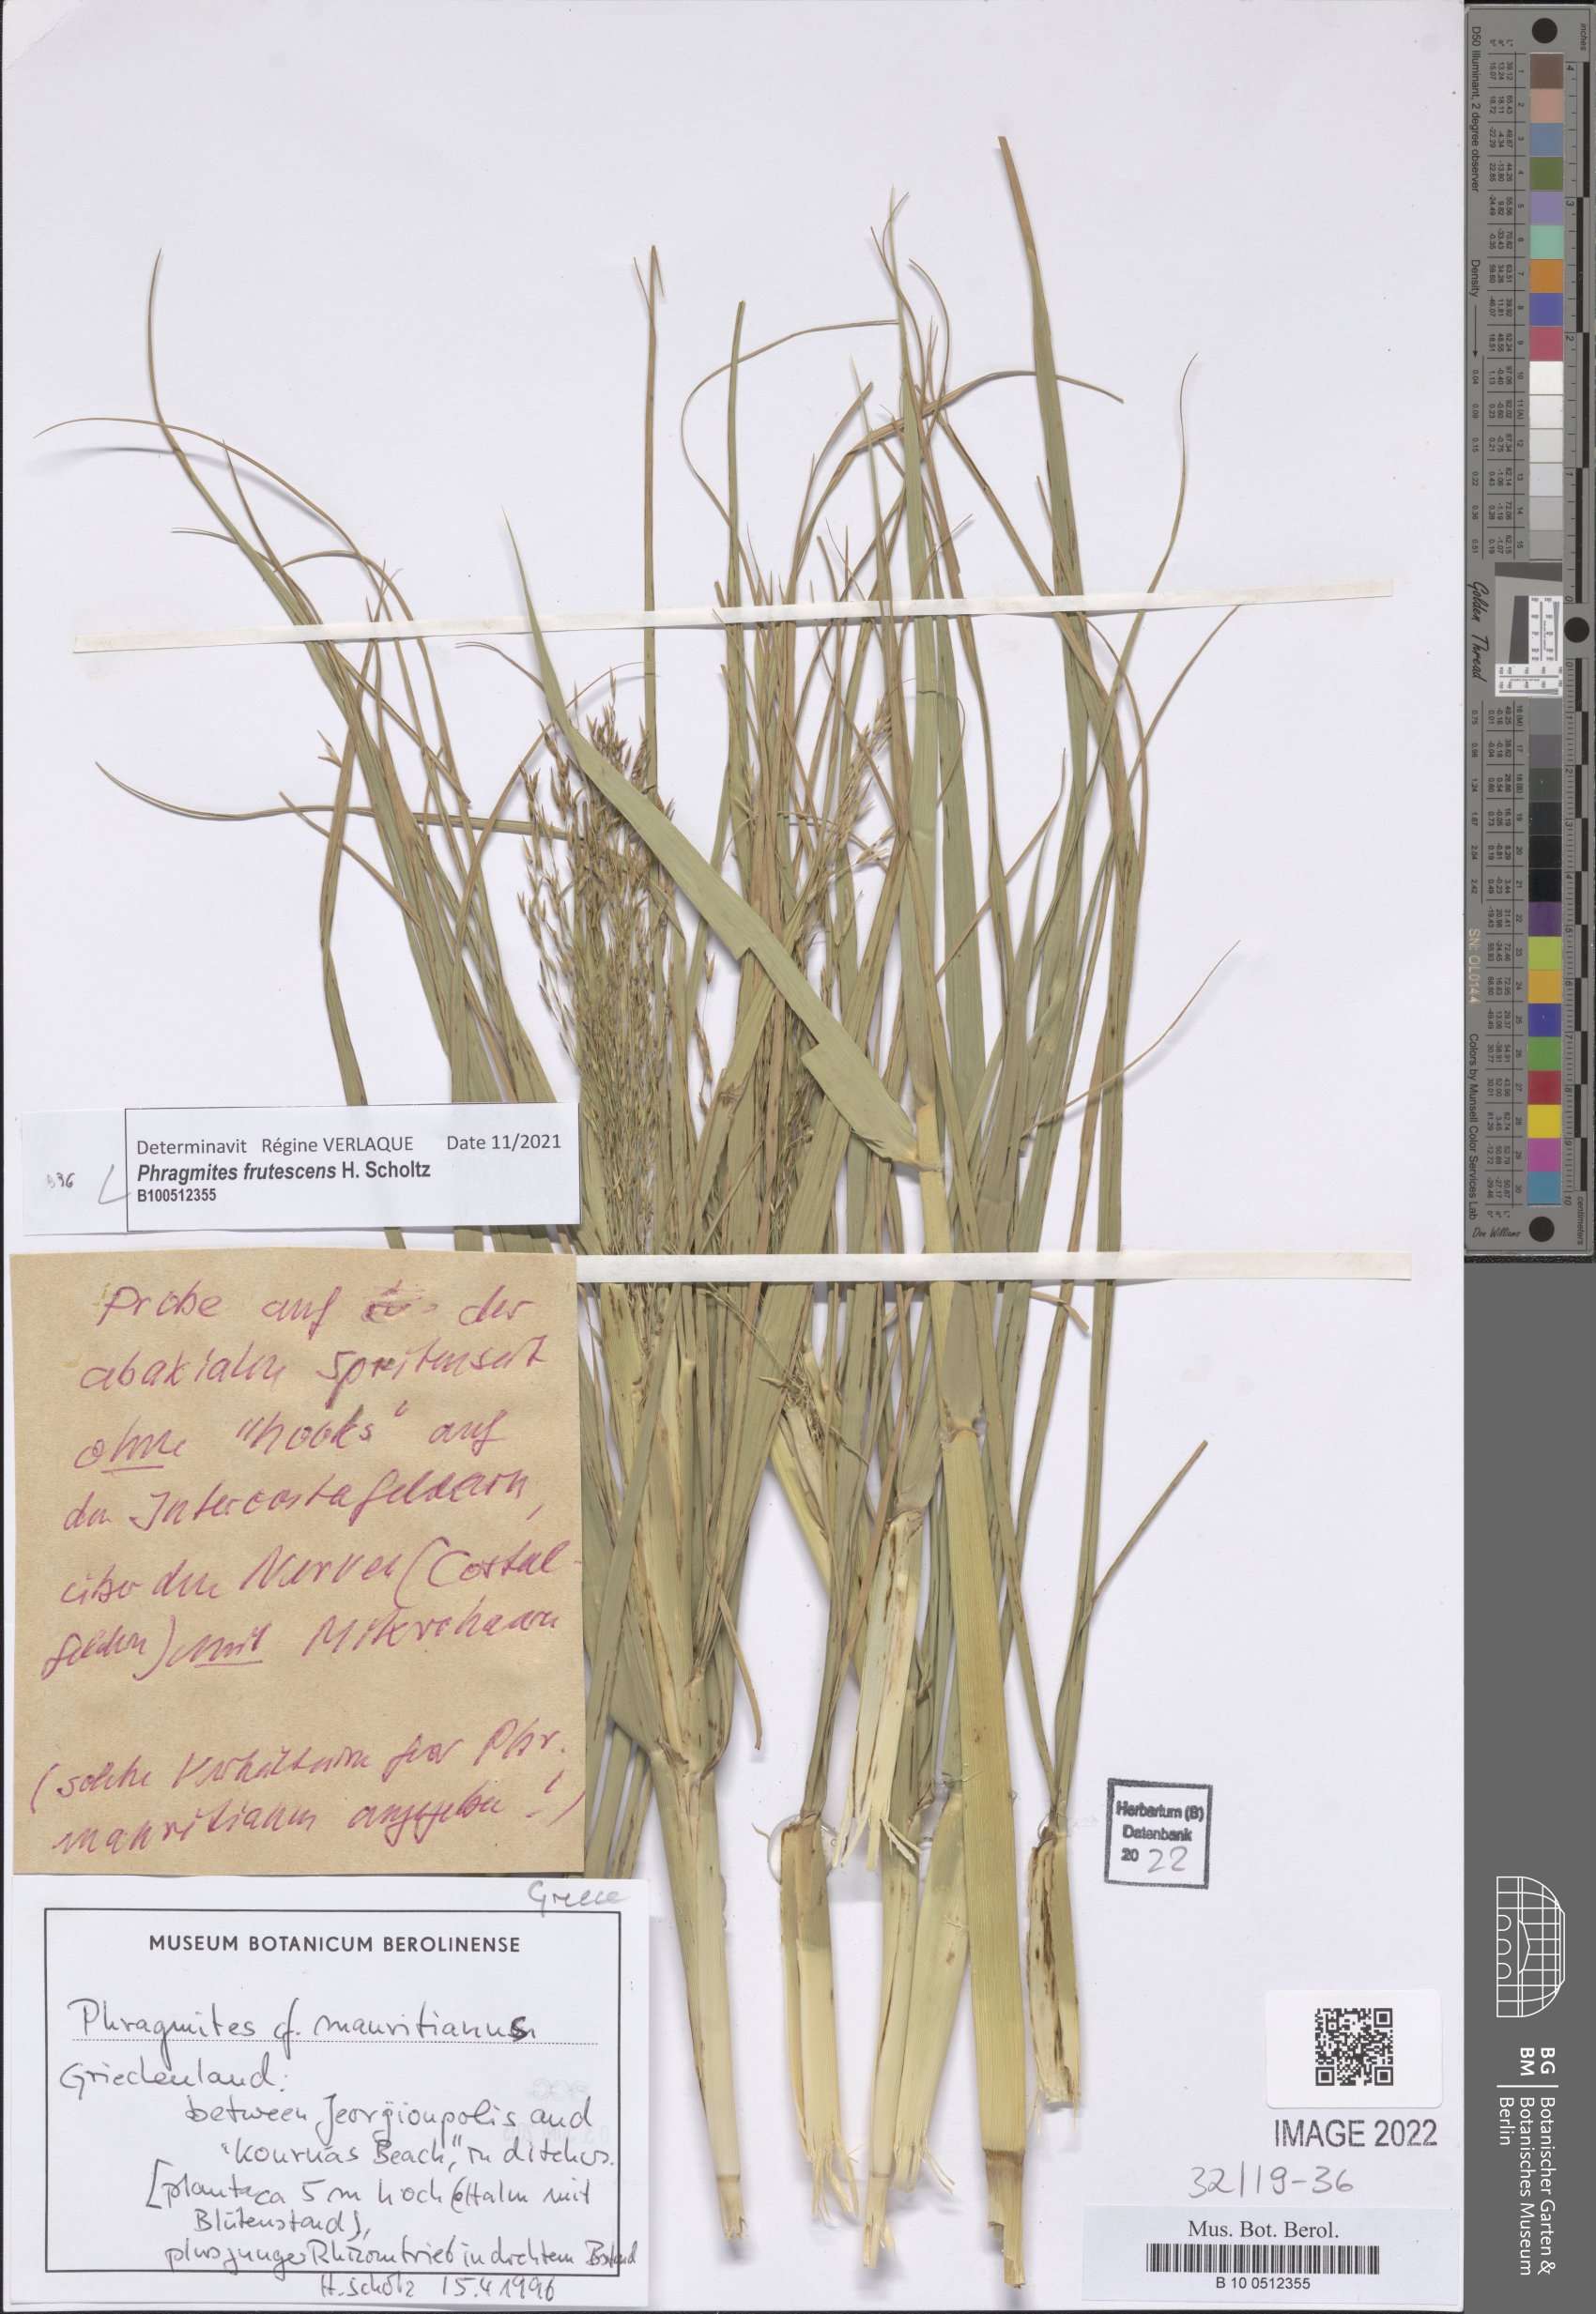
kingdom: Plantae
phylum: Tracheophyta
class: Liliopsida
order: Poales
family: Poaceae
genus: Phragmites
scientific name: Phragmites australis
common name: Common reed
